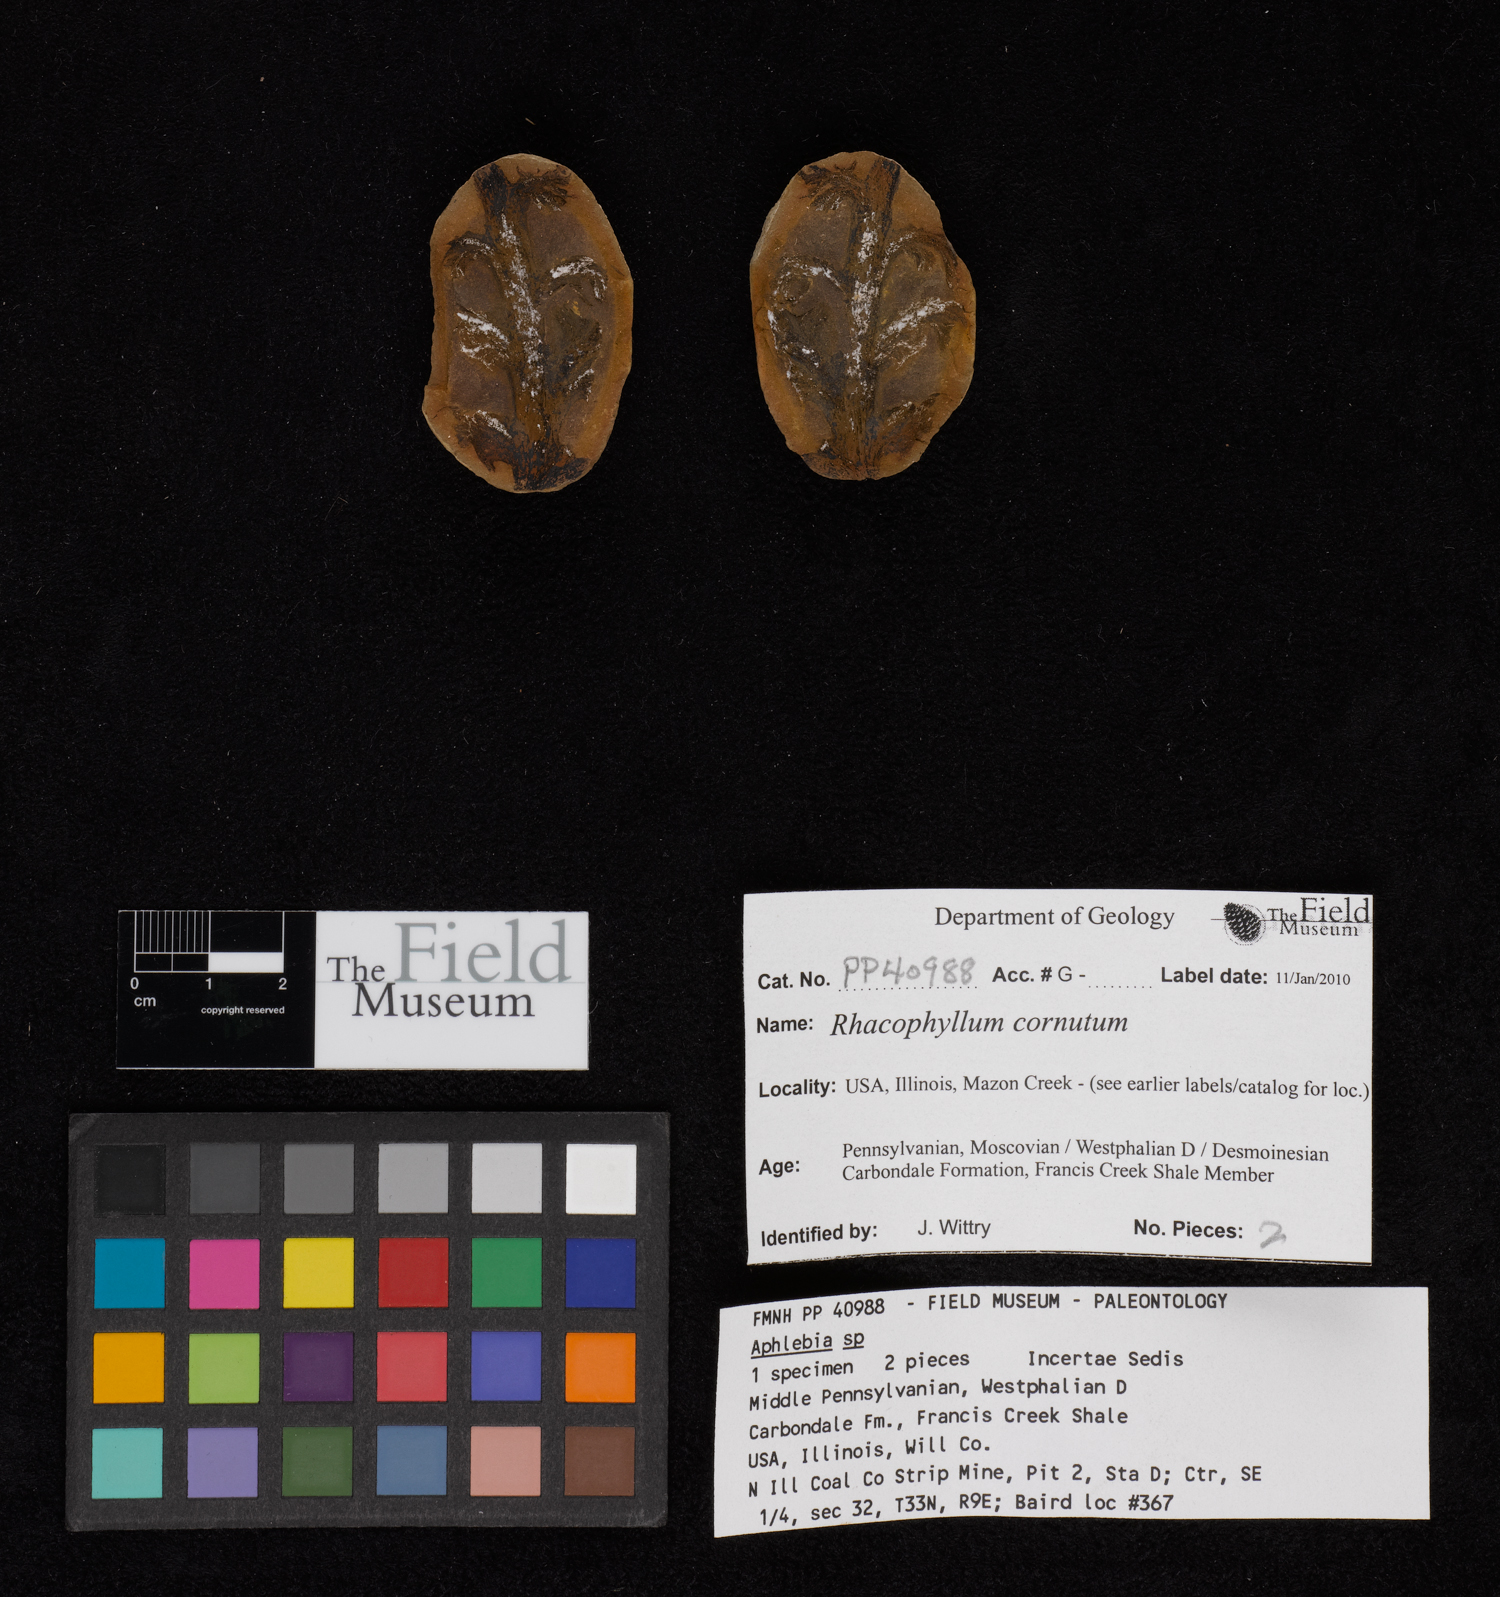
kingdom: Plantae
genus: Rhacophyllum
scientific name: Rhacophyllum
